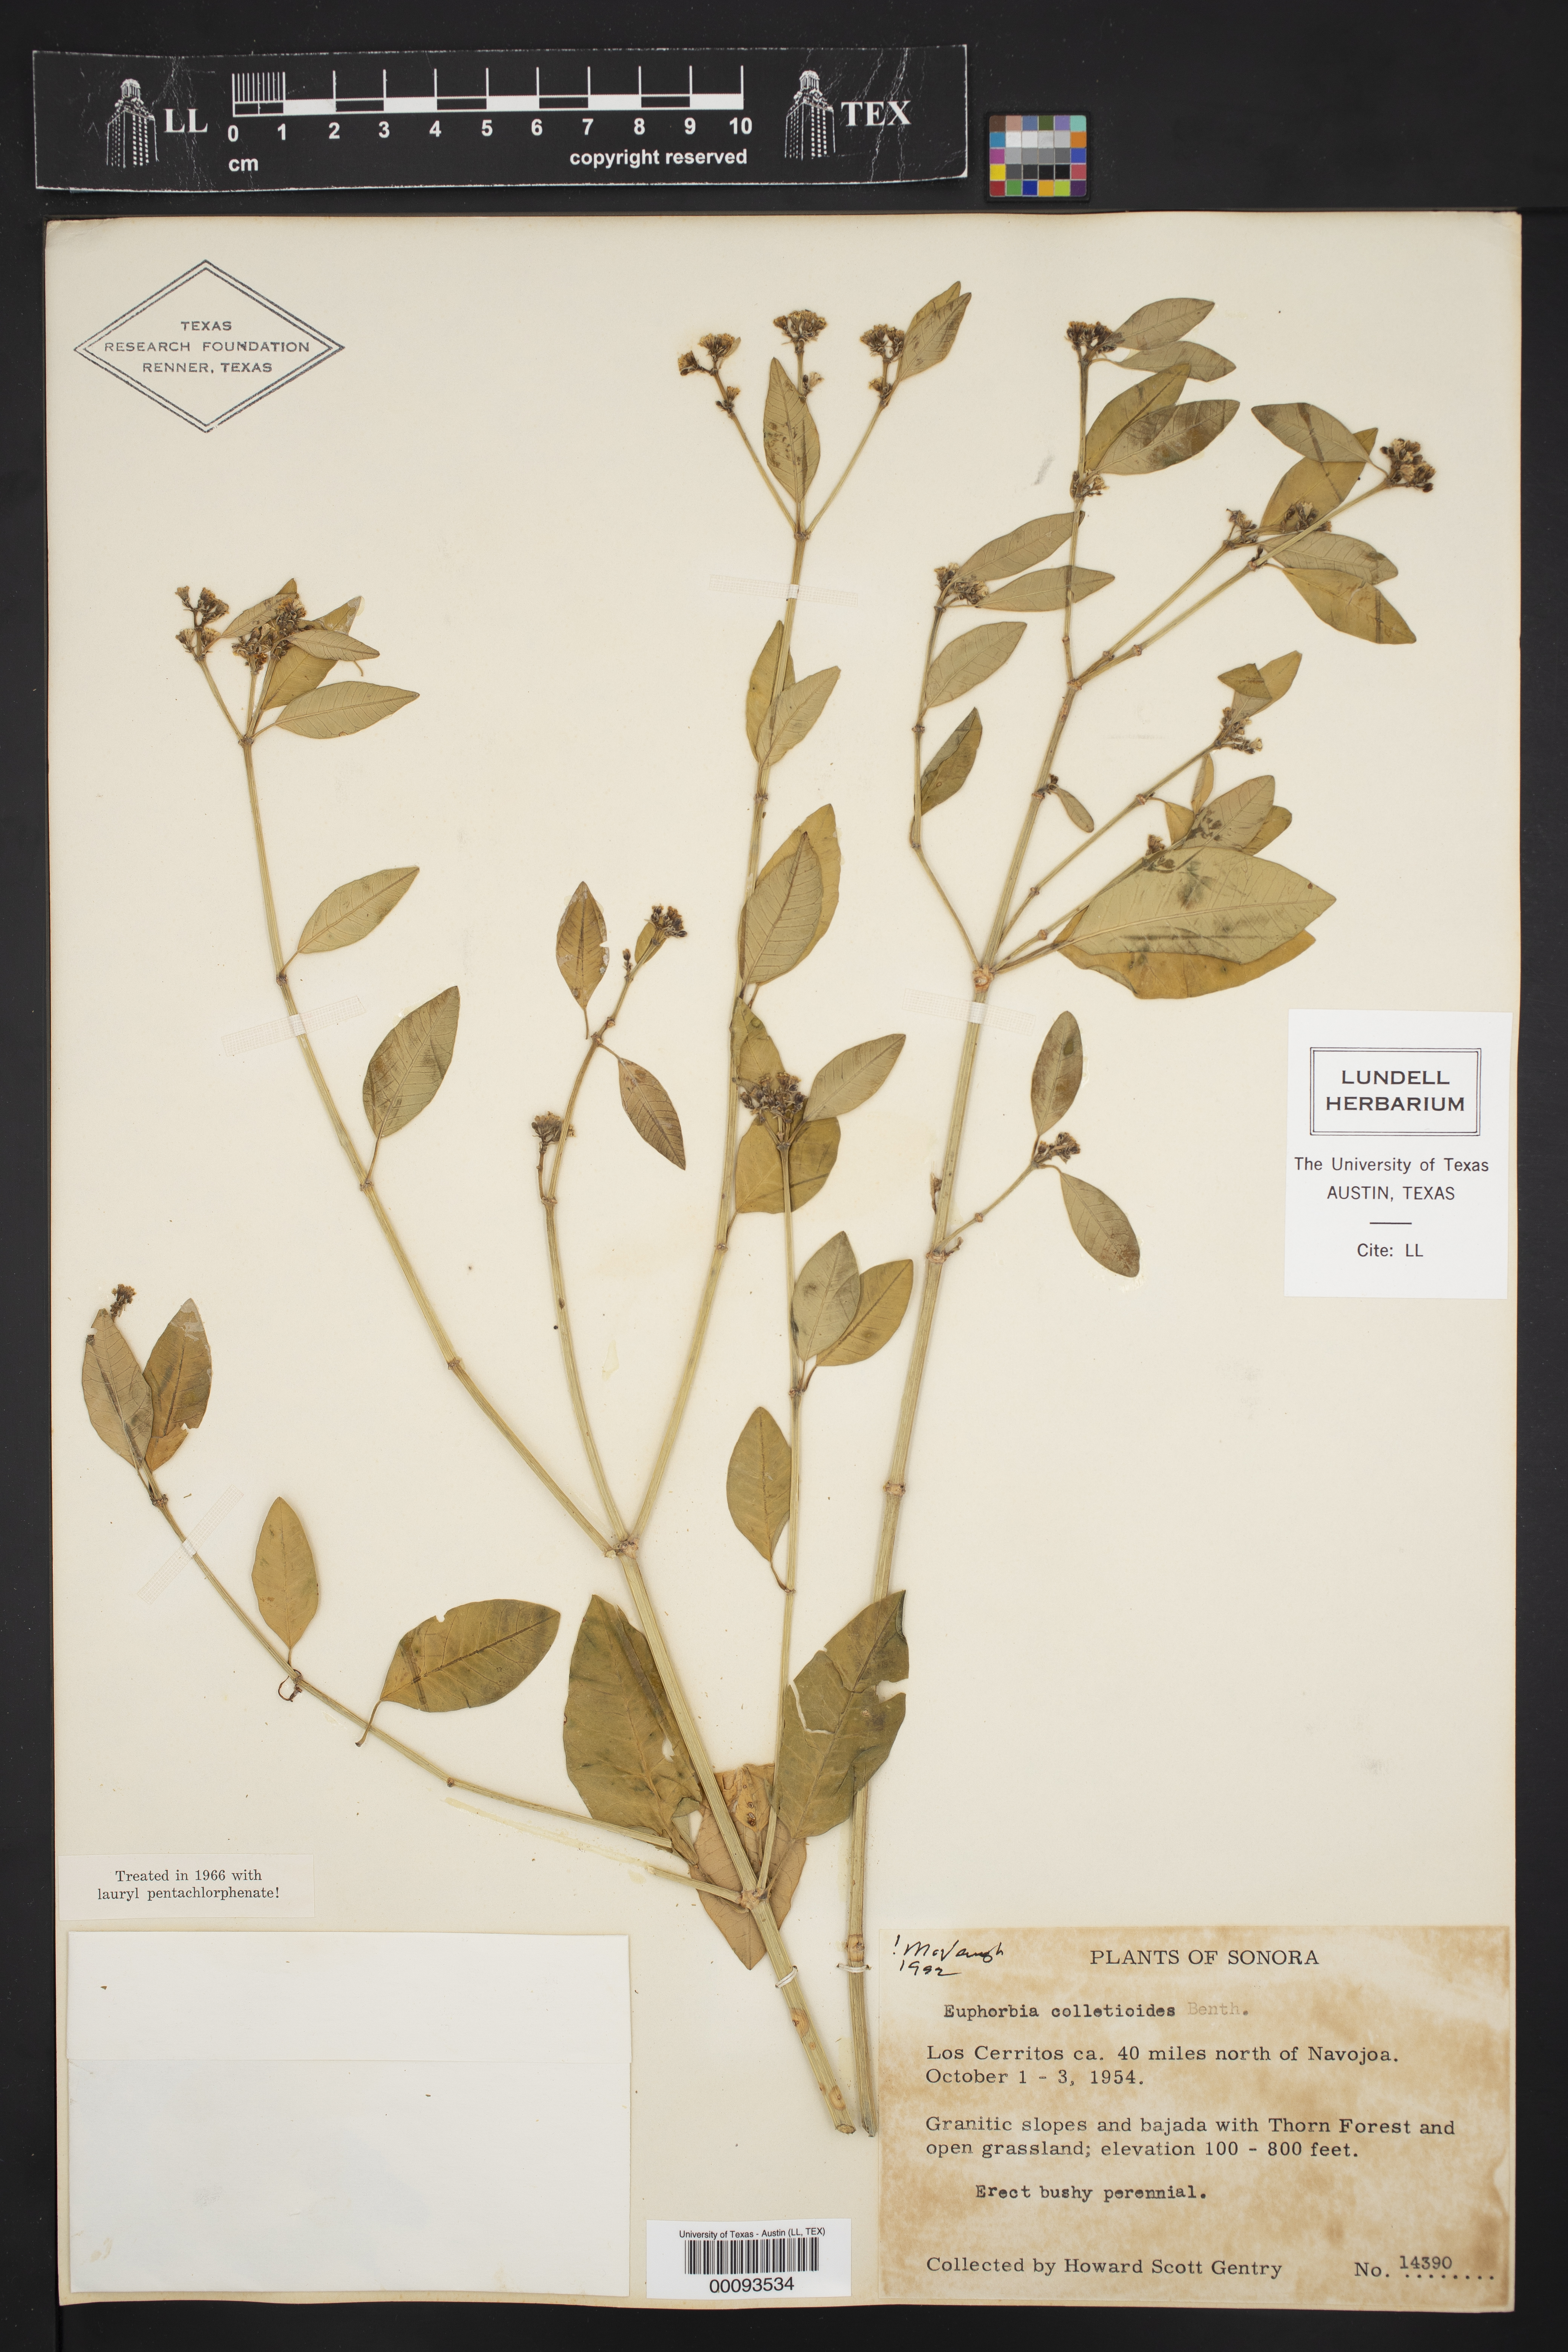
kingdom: Plantae
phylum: Tracheophyta
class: Magnoliopsida
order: Malpighiales
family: Euphorbiaceae
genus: Euphorbia
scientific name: Euphorbia colletioides
